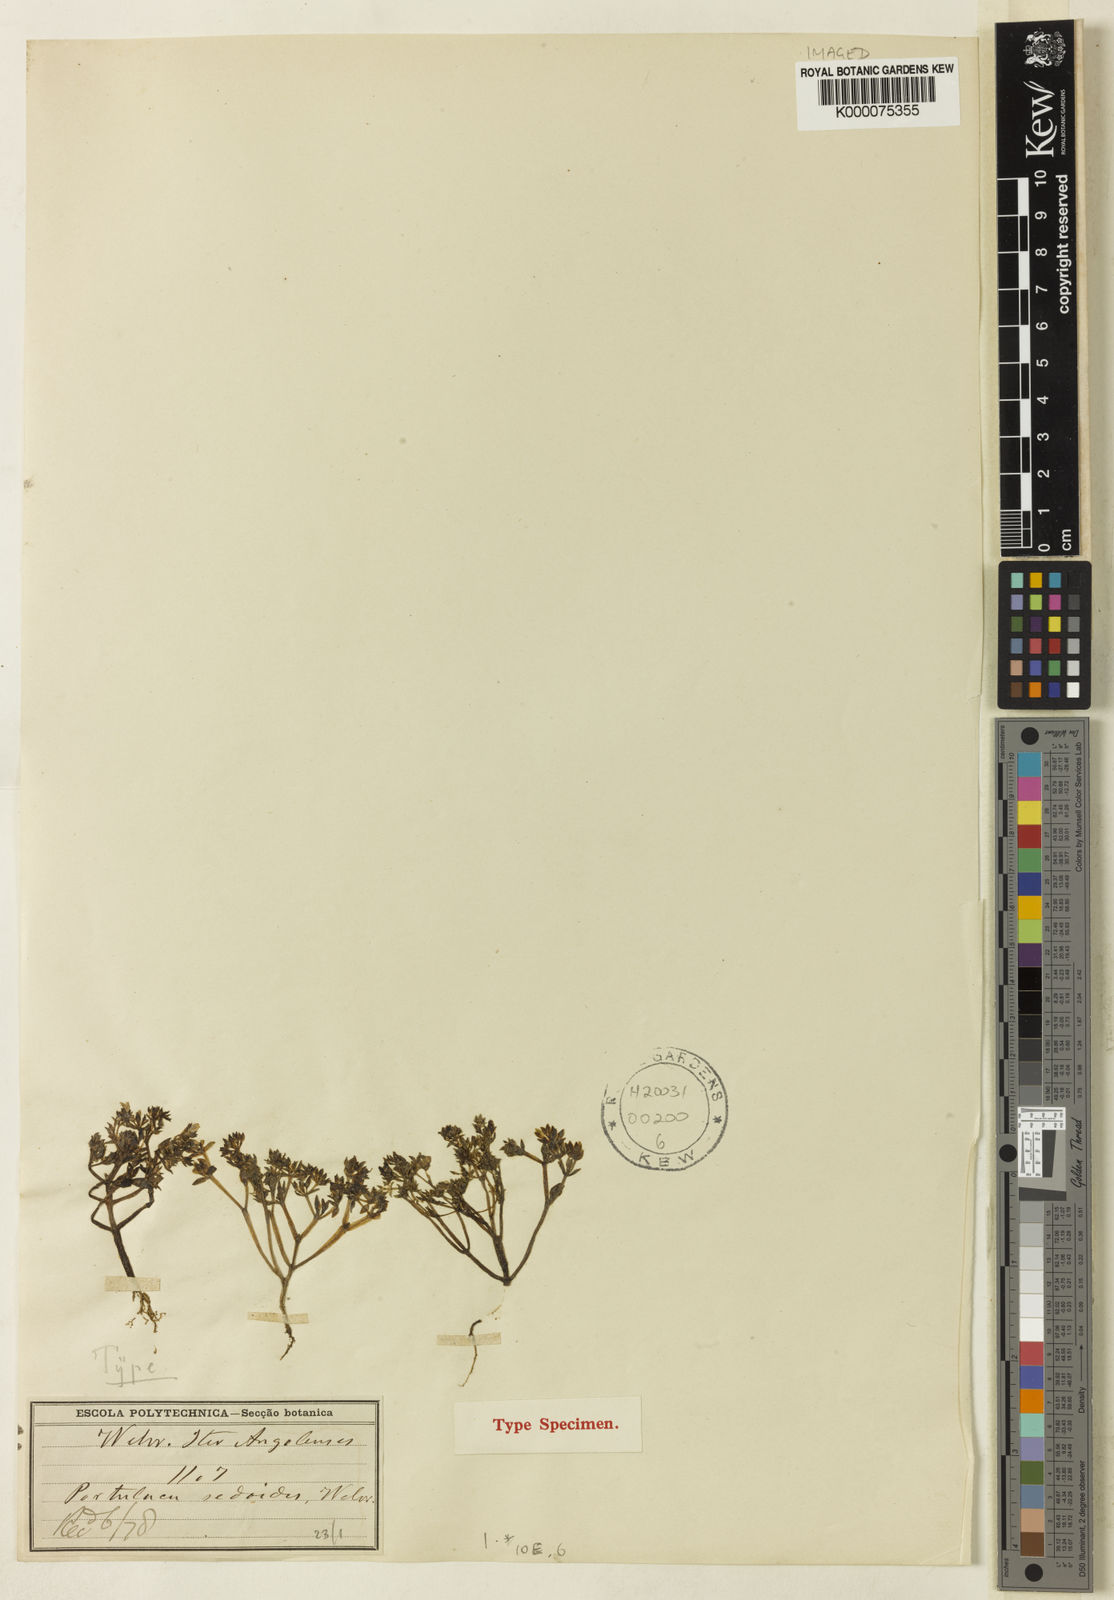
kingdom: Plantae
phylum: Tracheophyta
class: Magnoliopsida
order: Caryophyllales
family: Portulacaceae
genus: Portulaca
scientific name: Portulaca sedoides
